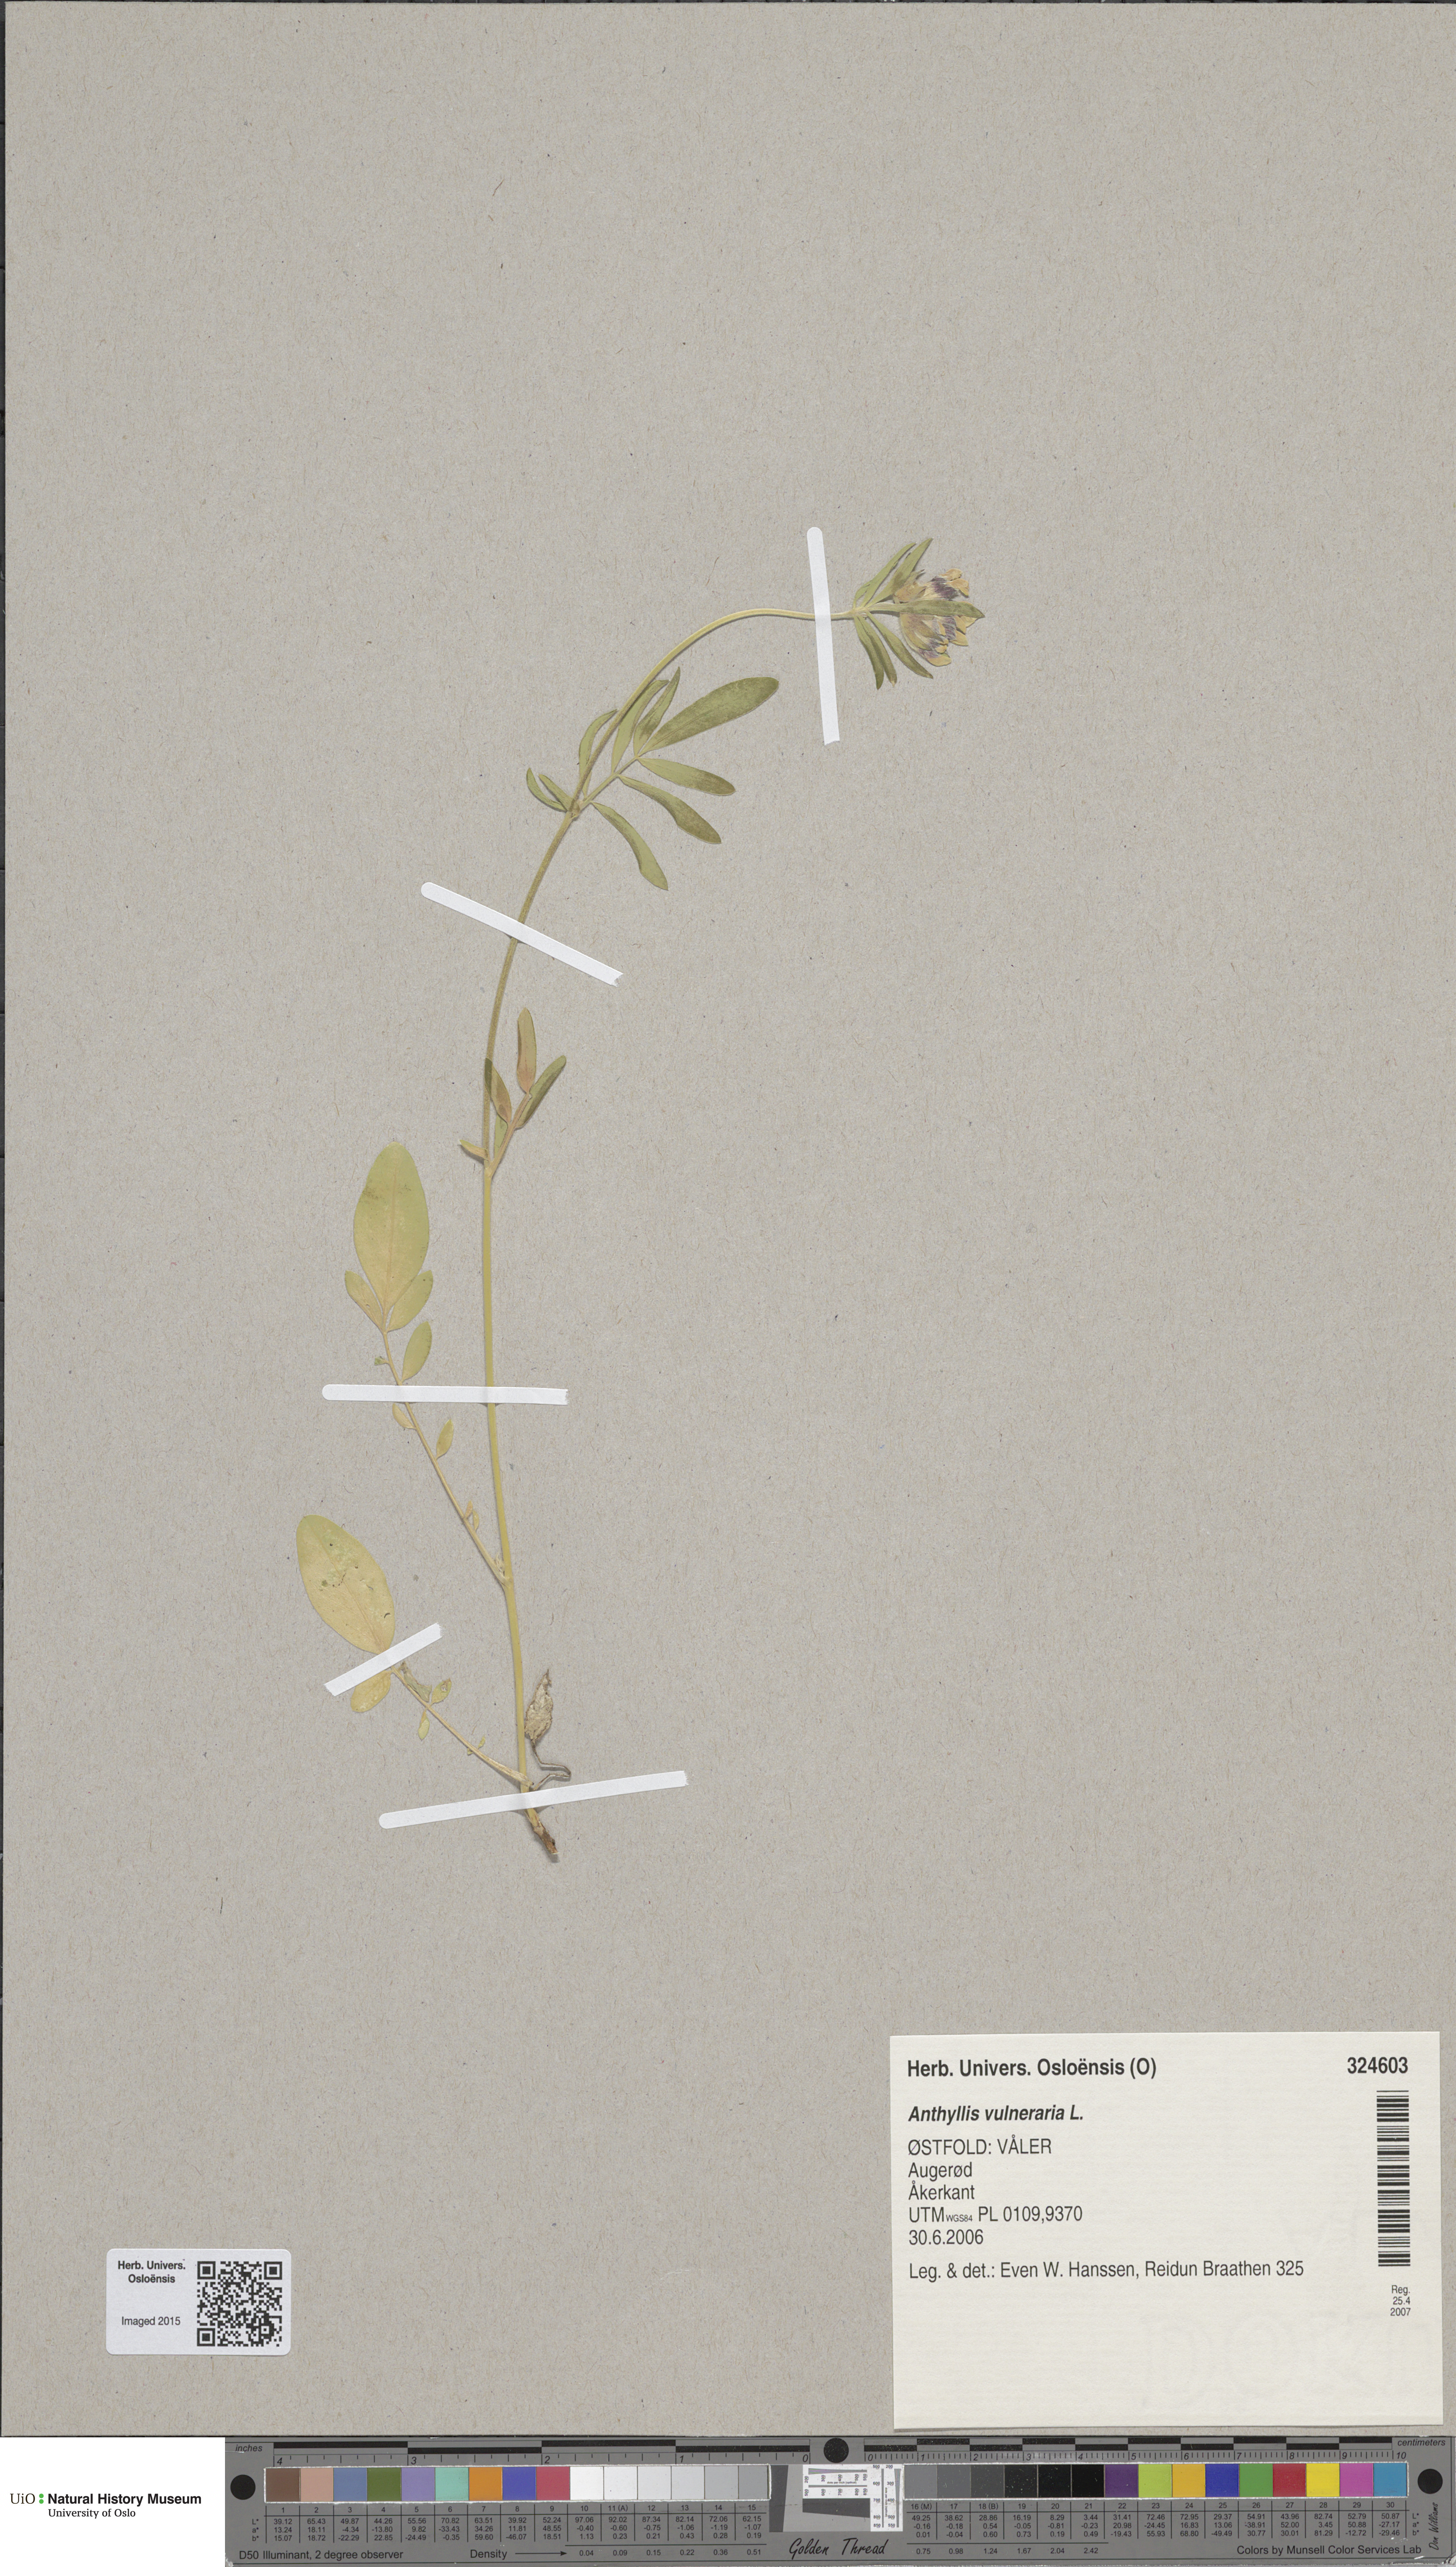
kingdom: Plantae
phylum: Tracheophyta
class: Magnoliopsida
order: Fabales
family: Fabaceae
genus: Anthyllis
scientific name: Anthyllis vulneraria
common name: Kidney vetch
